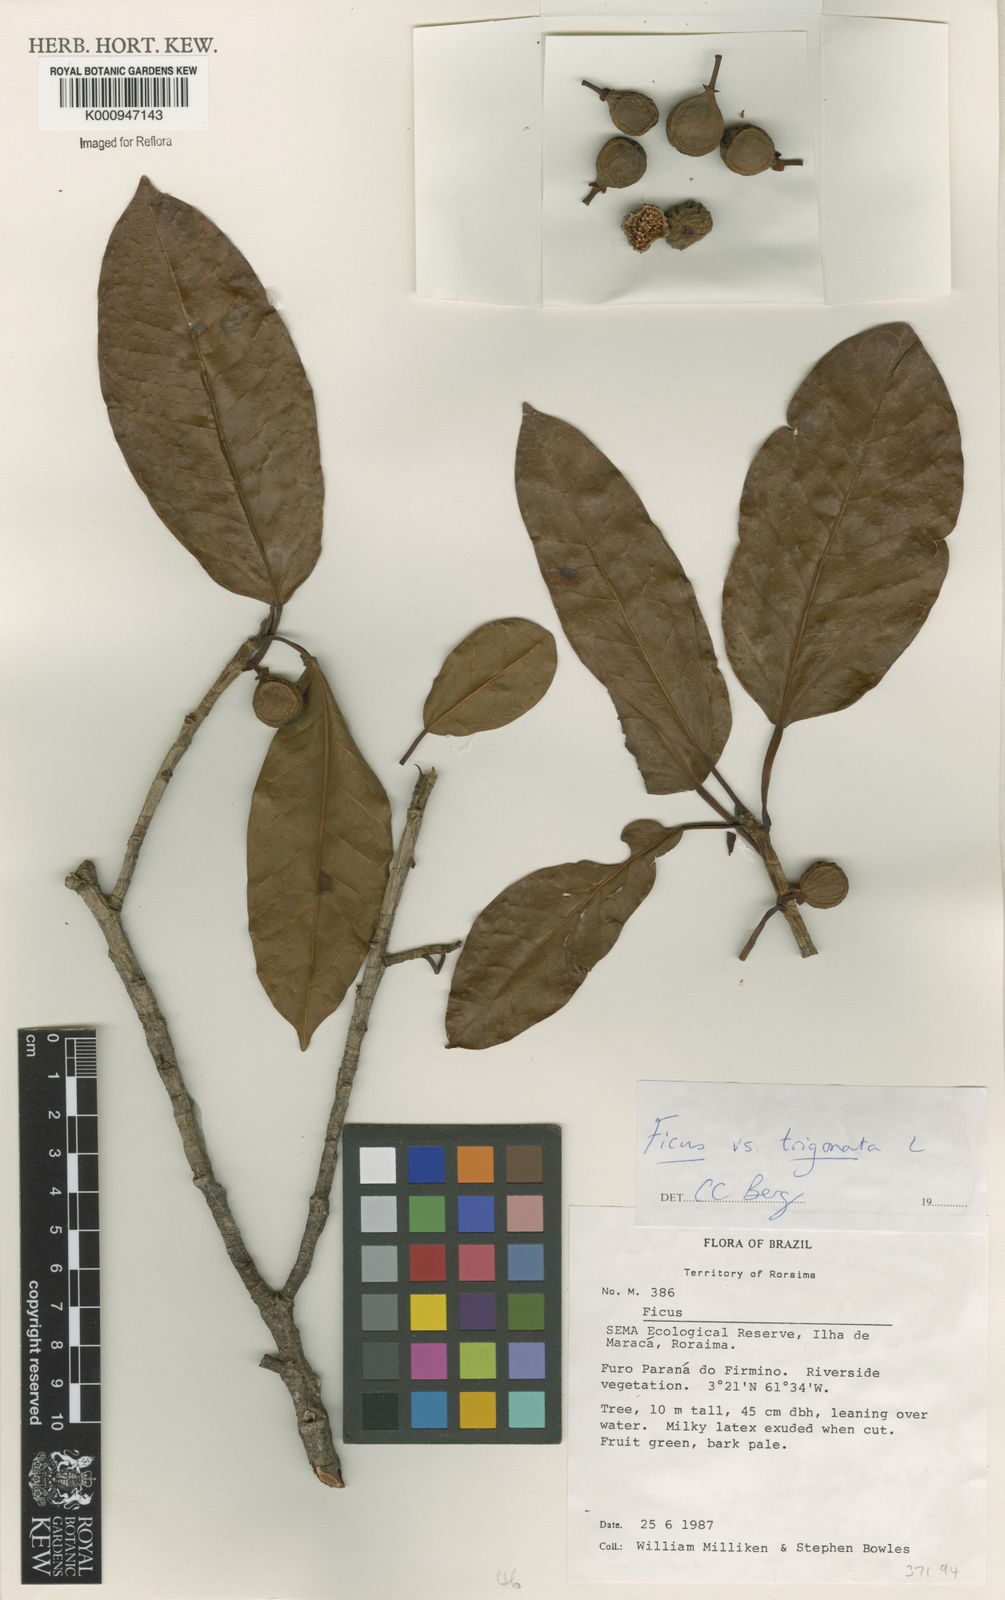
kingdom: Plantae
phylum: Tracheophyta
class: Magnoliopsida
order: Rosales
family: Moraceae
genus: Ficus
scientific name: Ficus trigonata
